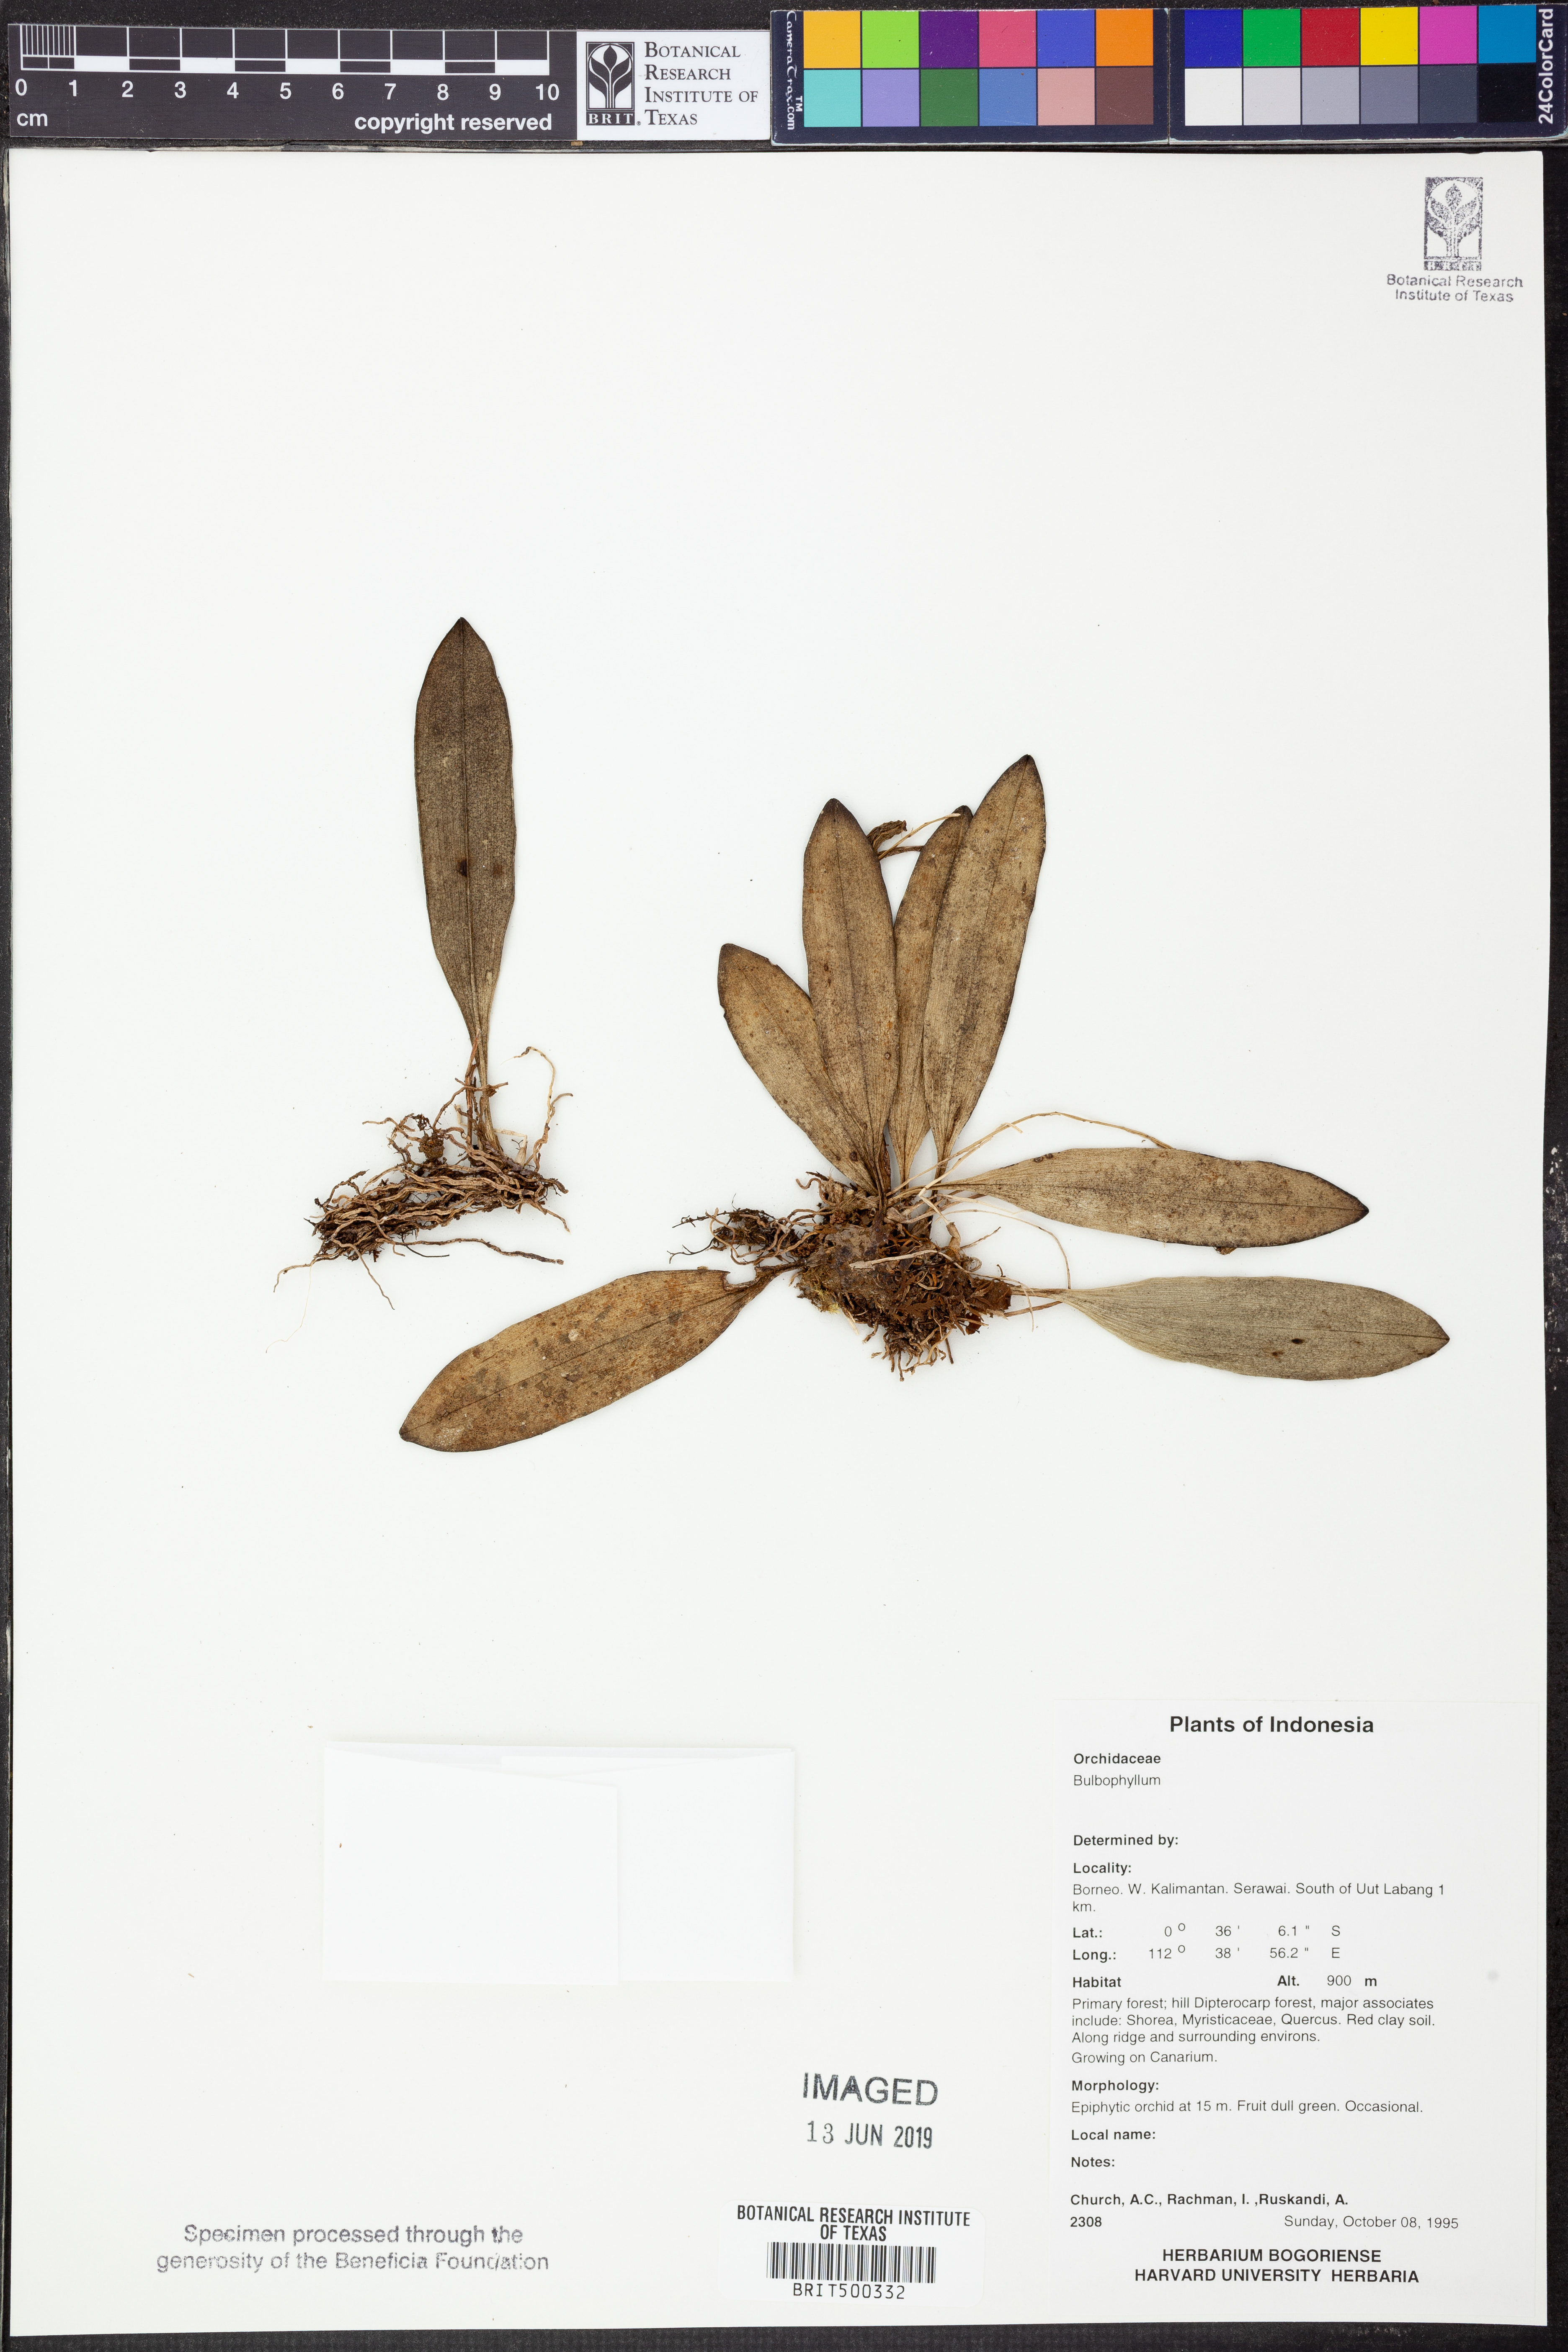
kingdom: Plantae
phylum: Tracheophyta
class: Liliopsida
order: Asparagales
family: Orchidaceae
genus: Bulbophyllum
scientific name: Bulbophyllum
